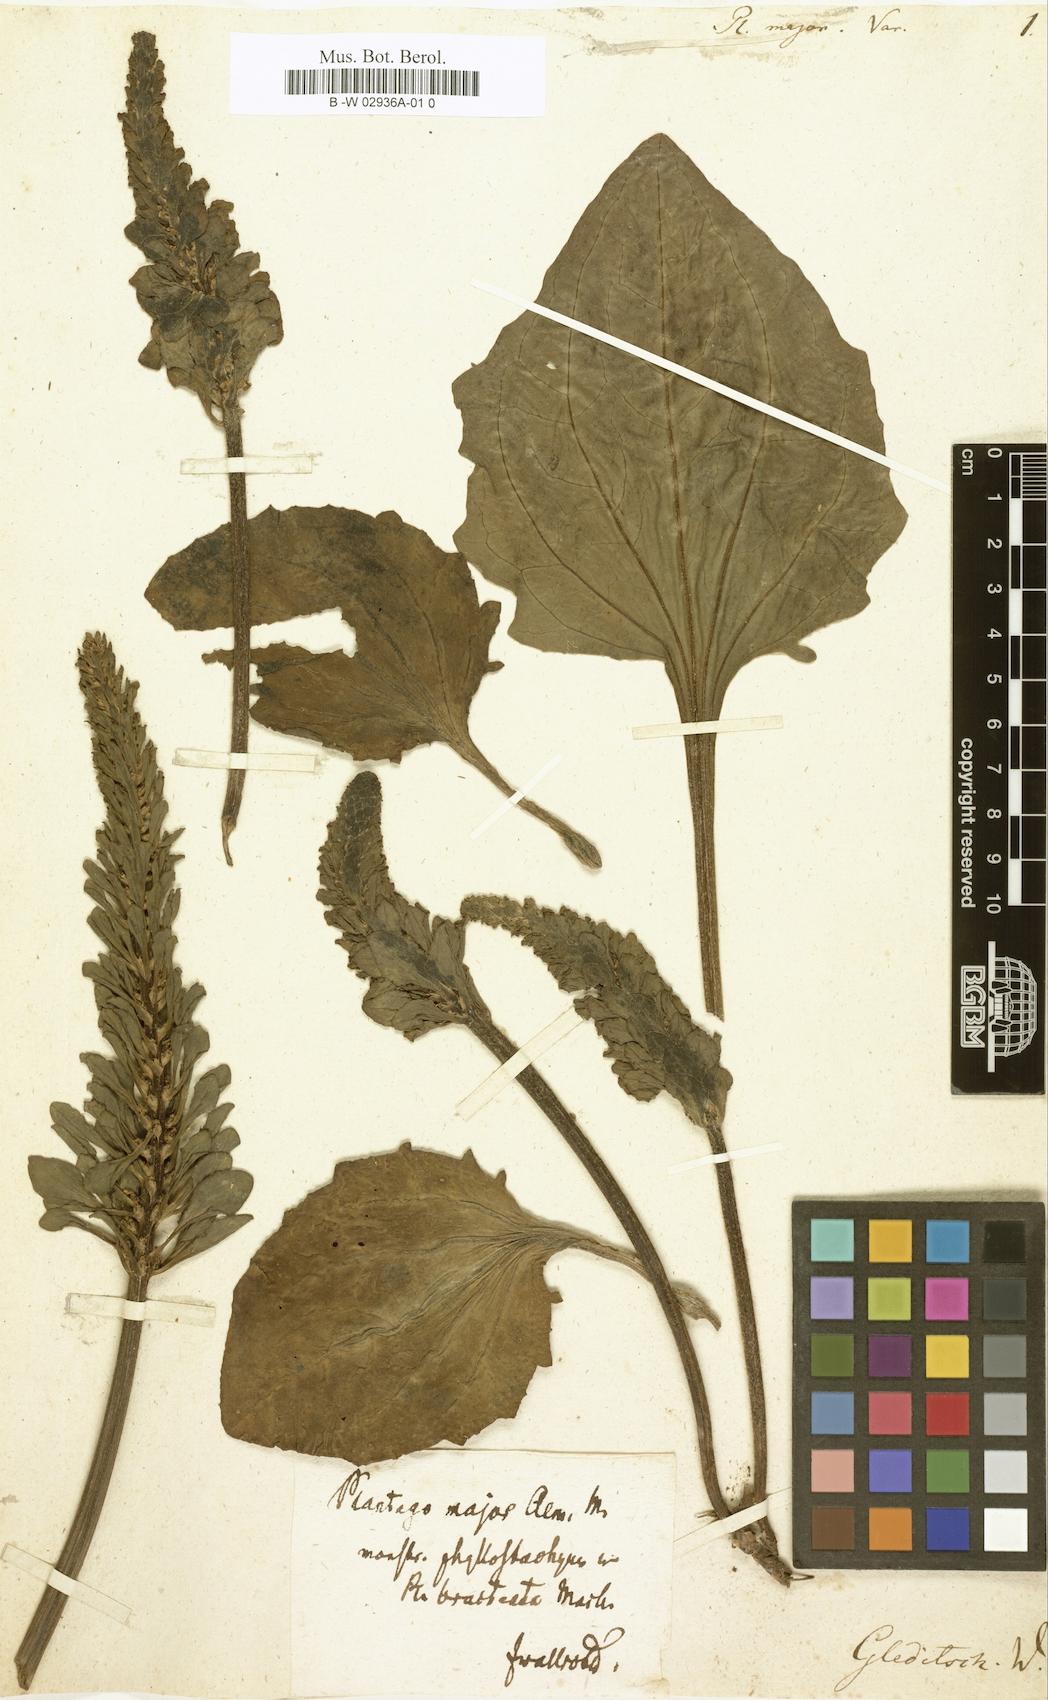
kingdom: Plantae
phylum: Tracheophyta
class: Magnoliopsida
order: Lamiales
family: Plantaginaceae
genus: Plantago
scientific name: Plantago major
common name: Common plantain
